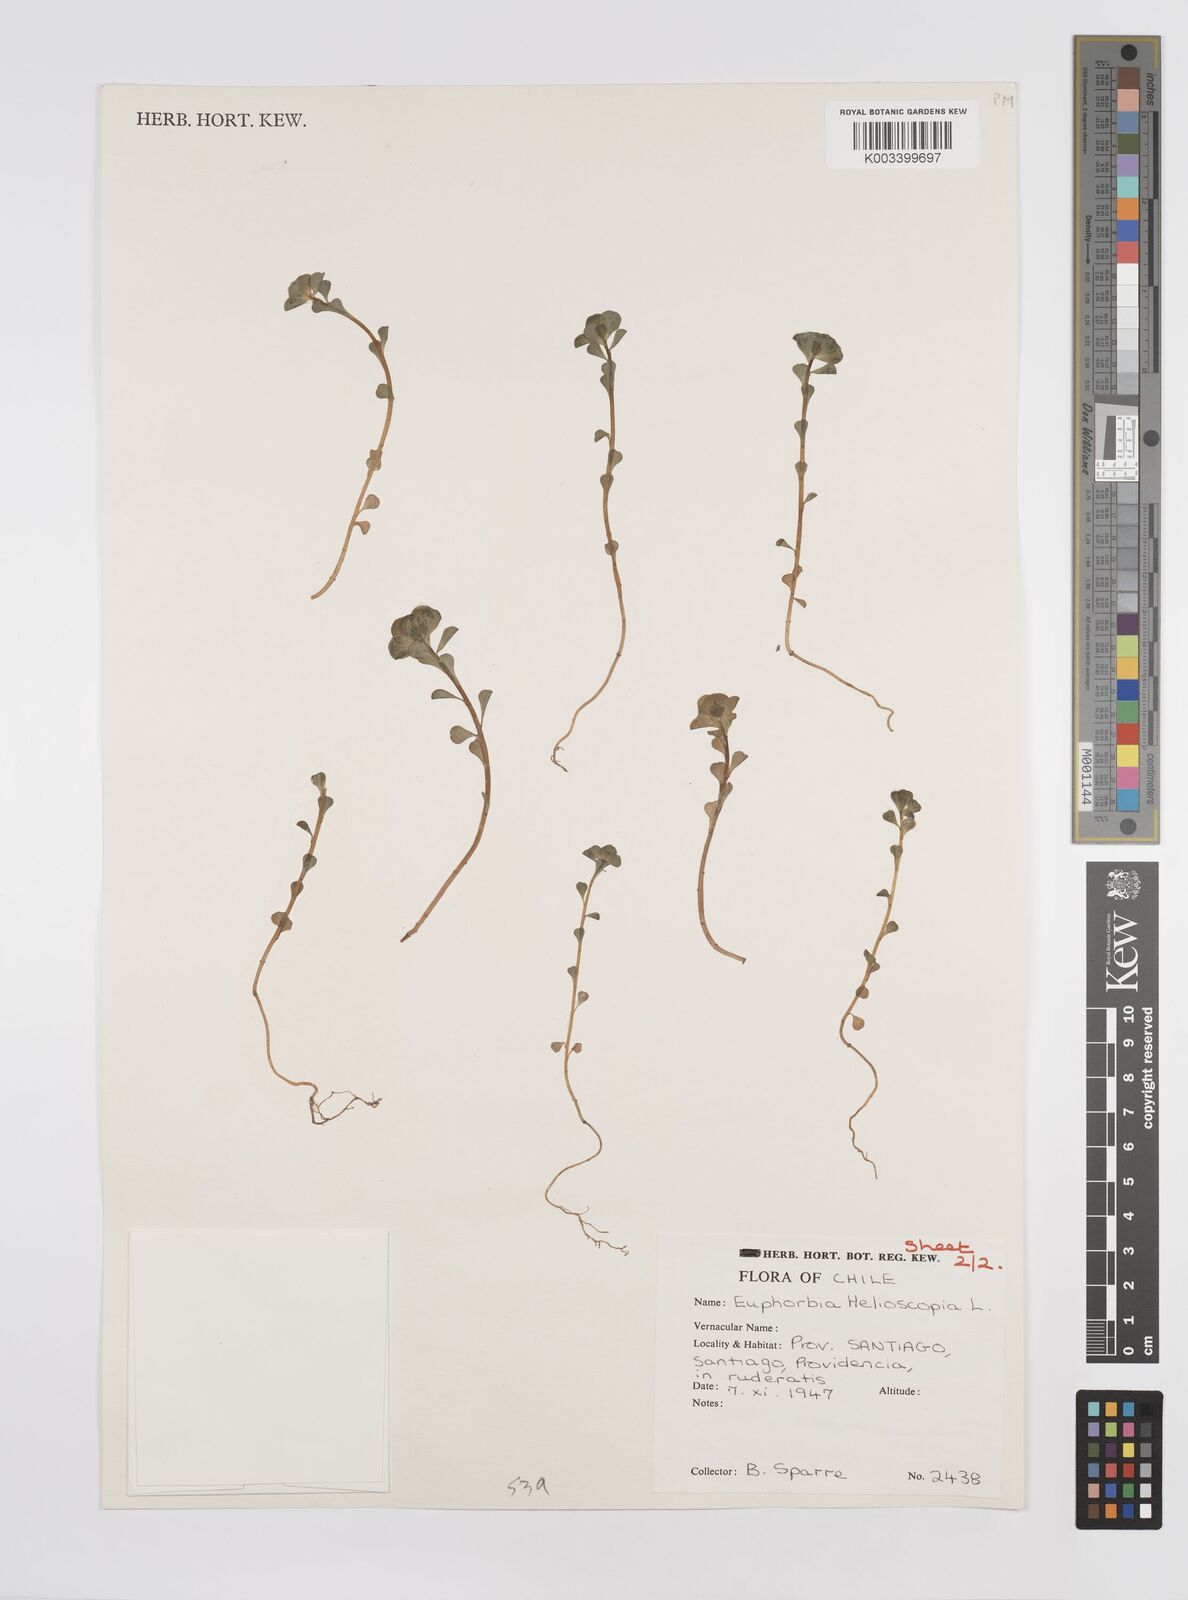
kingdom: Plantae
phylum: Tracheophyta
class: Magnoliopsida
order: Malpighiales
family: Euphorbiaceae
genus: Euphorbia
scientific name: Euphorbia helioscopia
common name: Sun spurge
